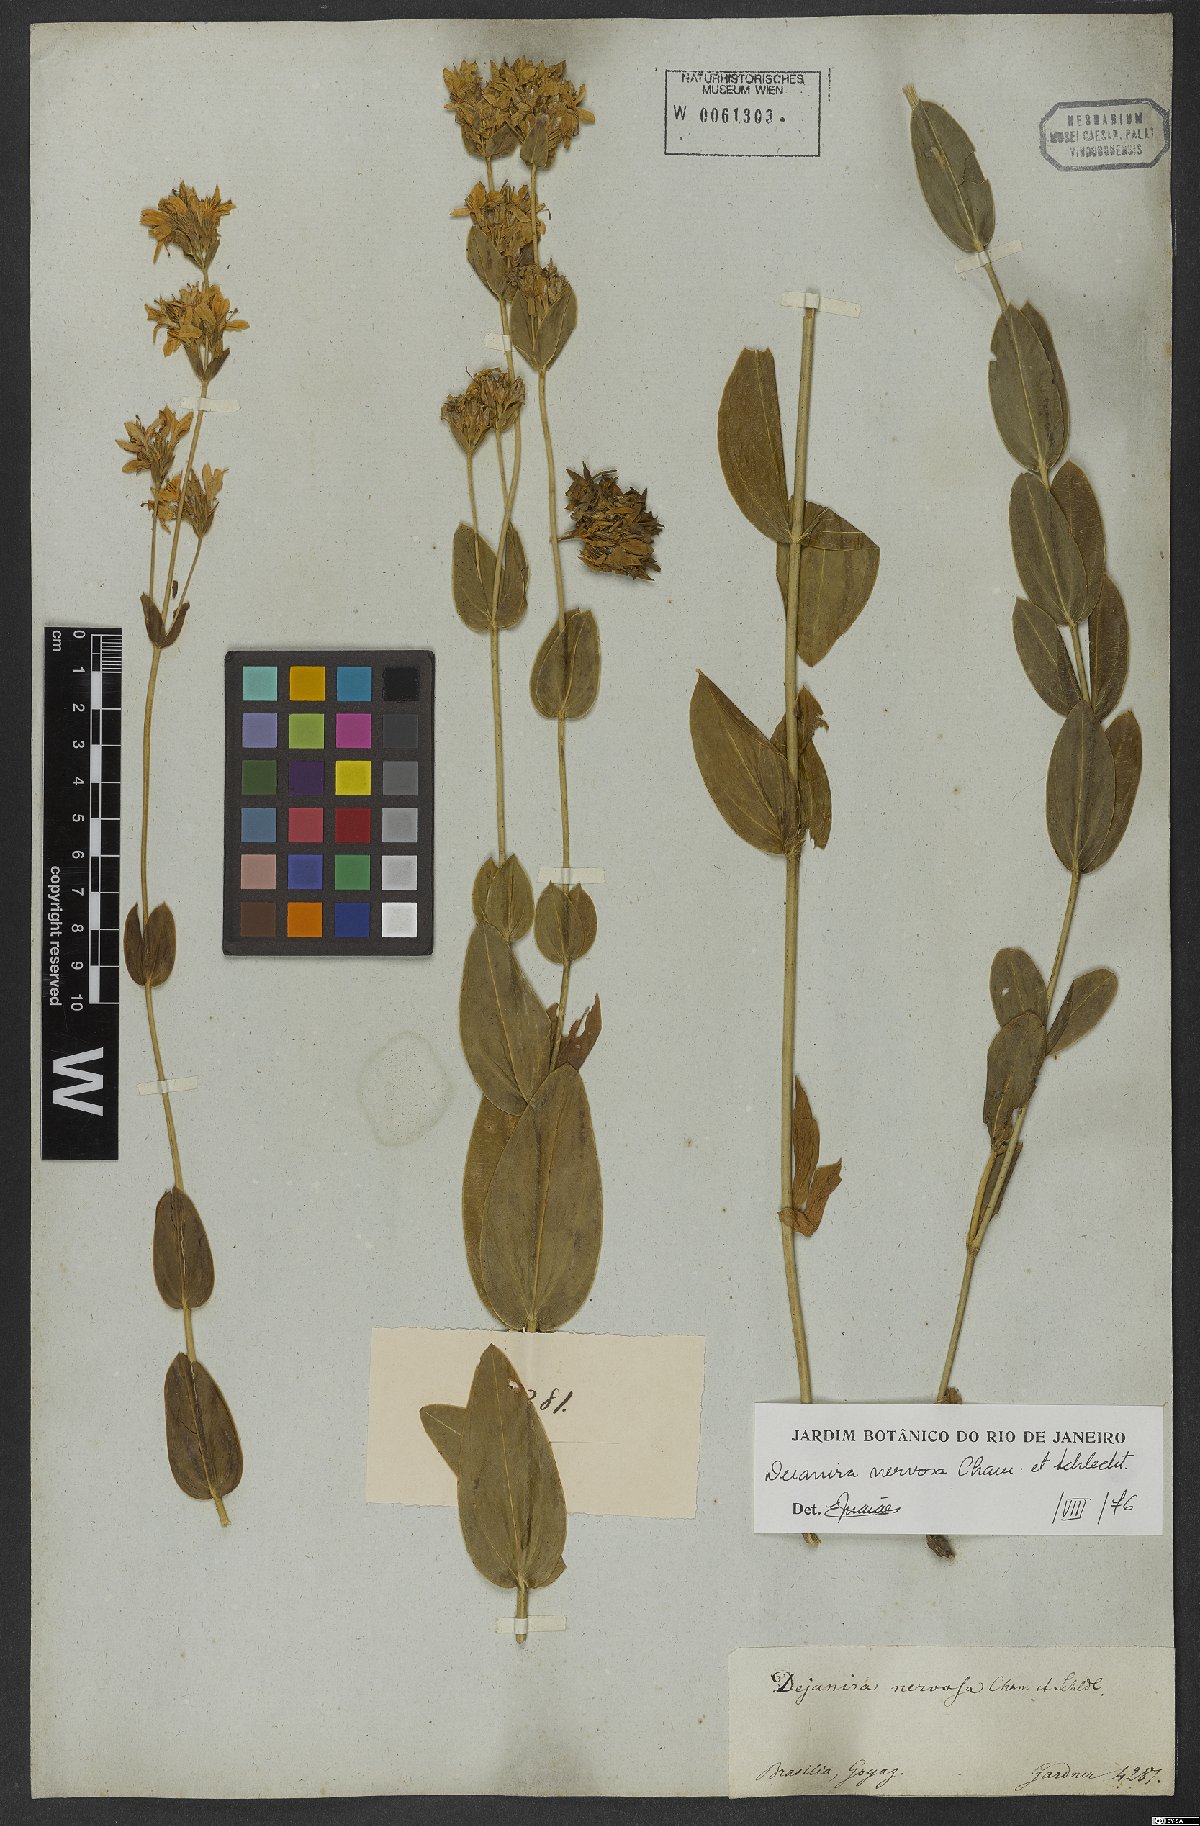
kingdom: Plantae
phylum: Tracheophyta
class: Magnoliopsida
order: Gentianales
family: Gentianaceae
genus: Deianira
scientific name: Deianira nervosa
